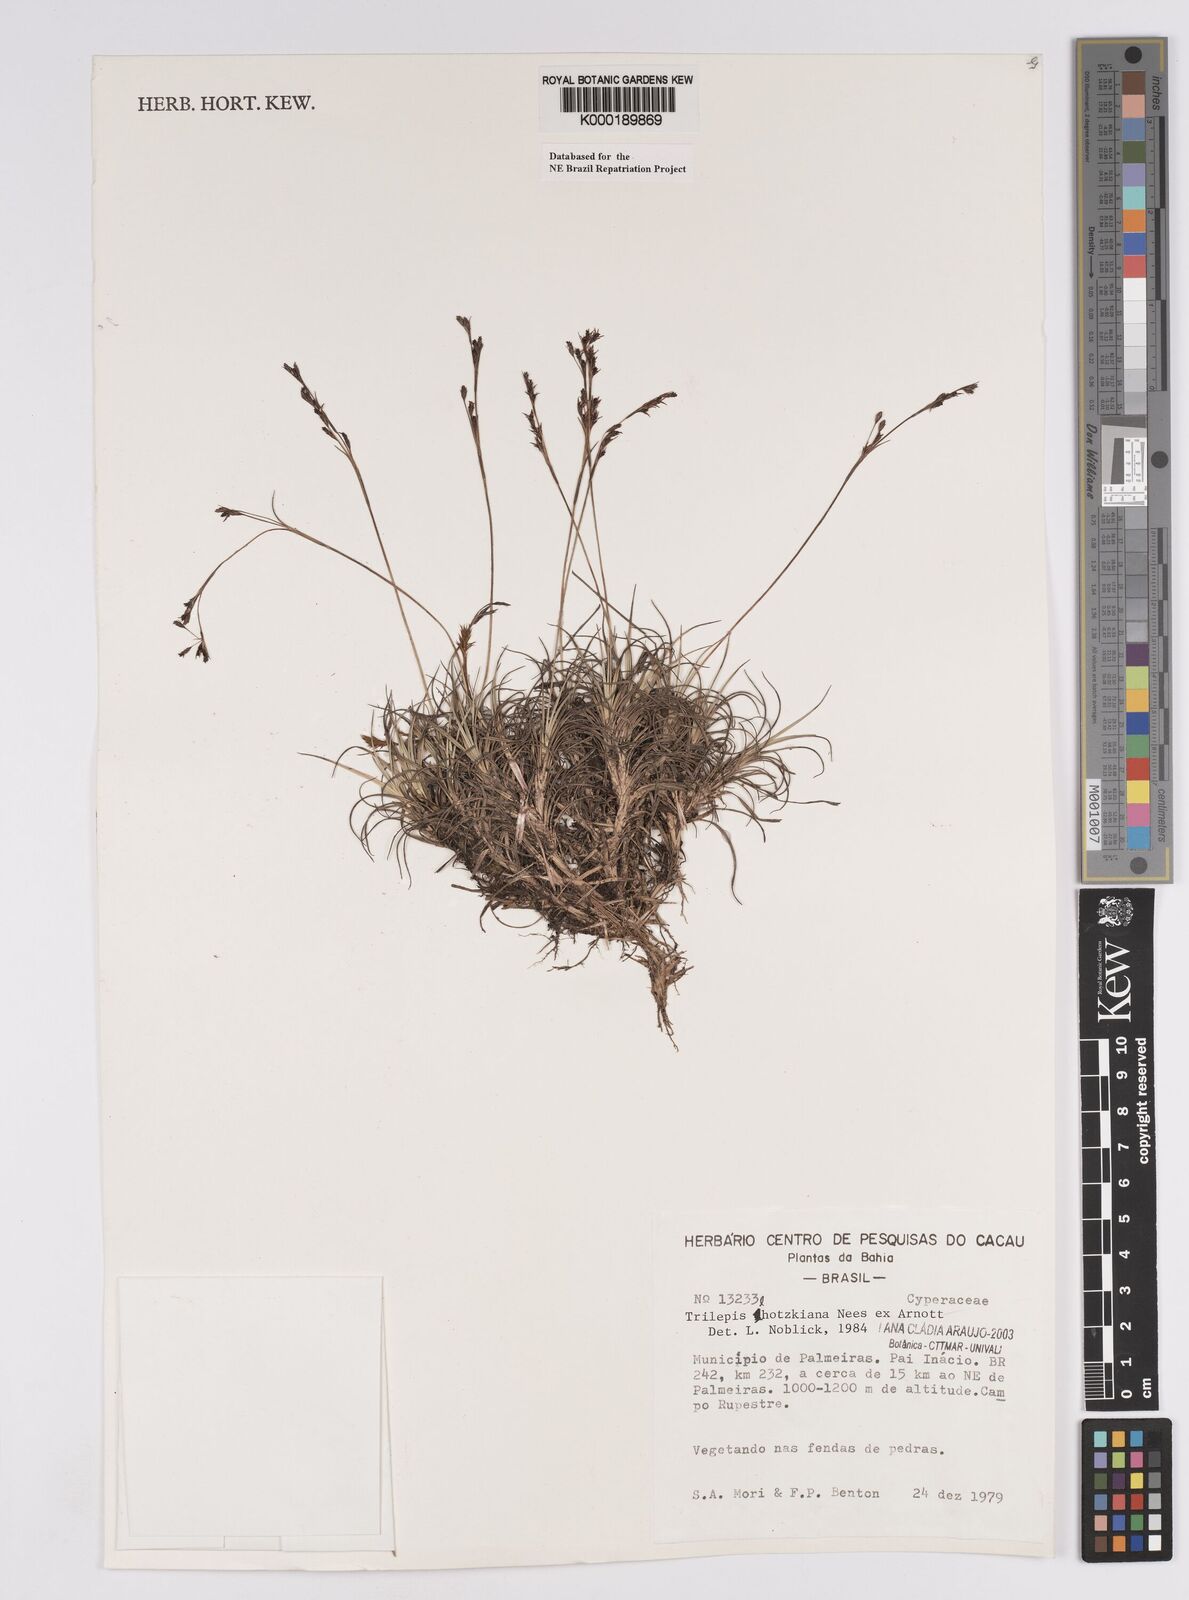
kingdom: Plantae
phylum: Tracheophyta
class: Liliopsida
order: Poales
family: Cyperaceae
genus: Trilepis
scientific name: Trilepis lhotzkiana
